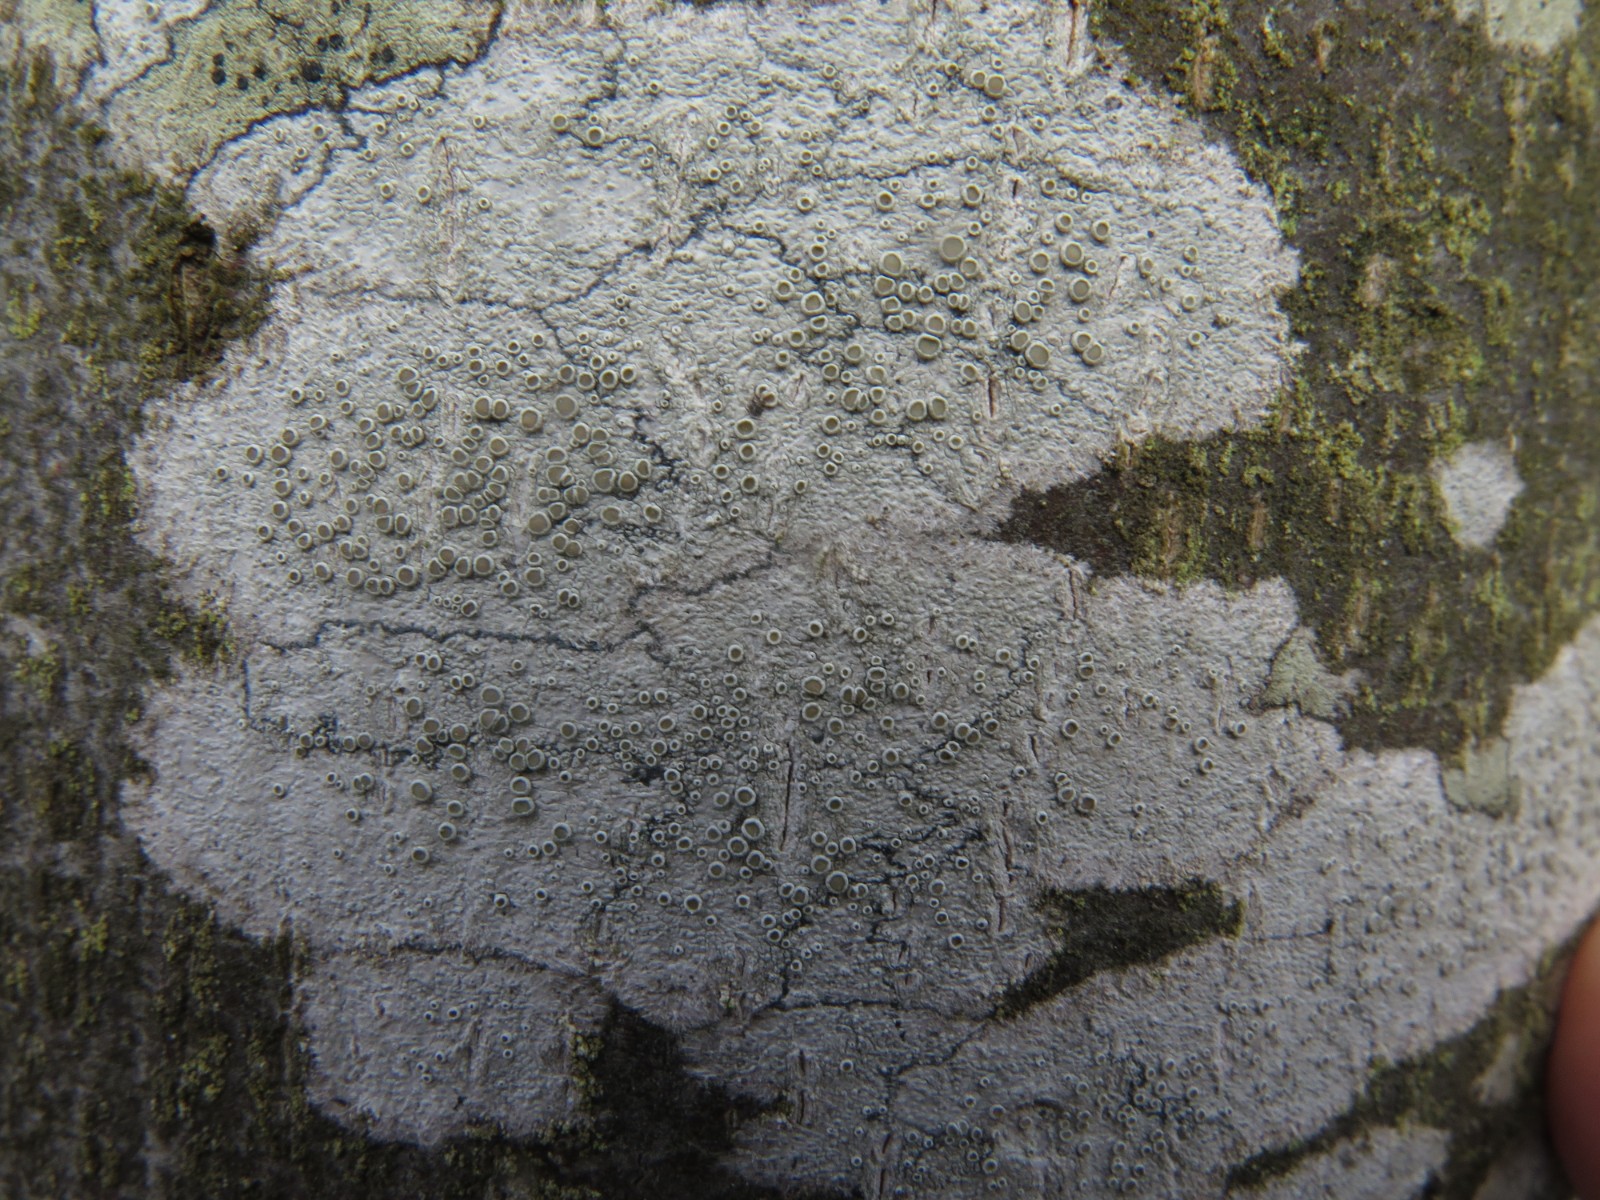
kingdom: Fungi
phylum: Ascomycota
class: Lecanoromycetes
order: Lecanorales
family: Lecanoraceae
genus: Lecanora
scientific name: Lecanora chlarotera
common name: brun kantskivelav
